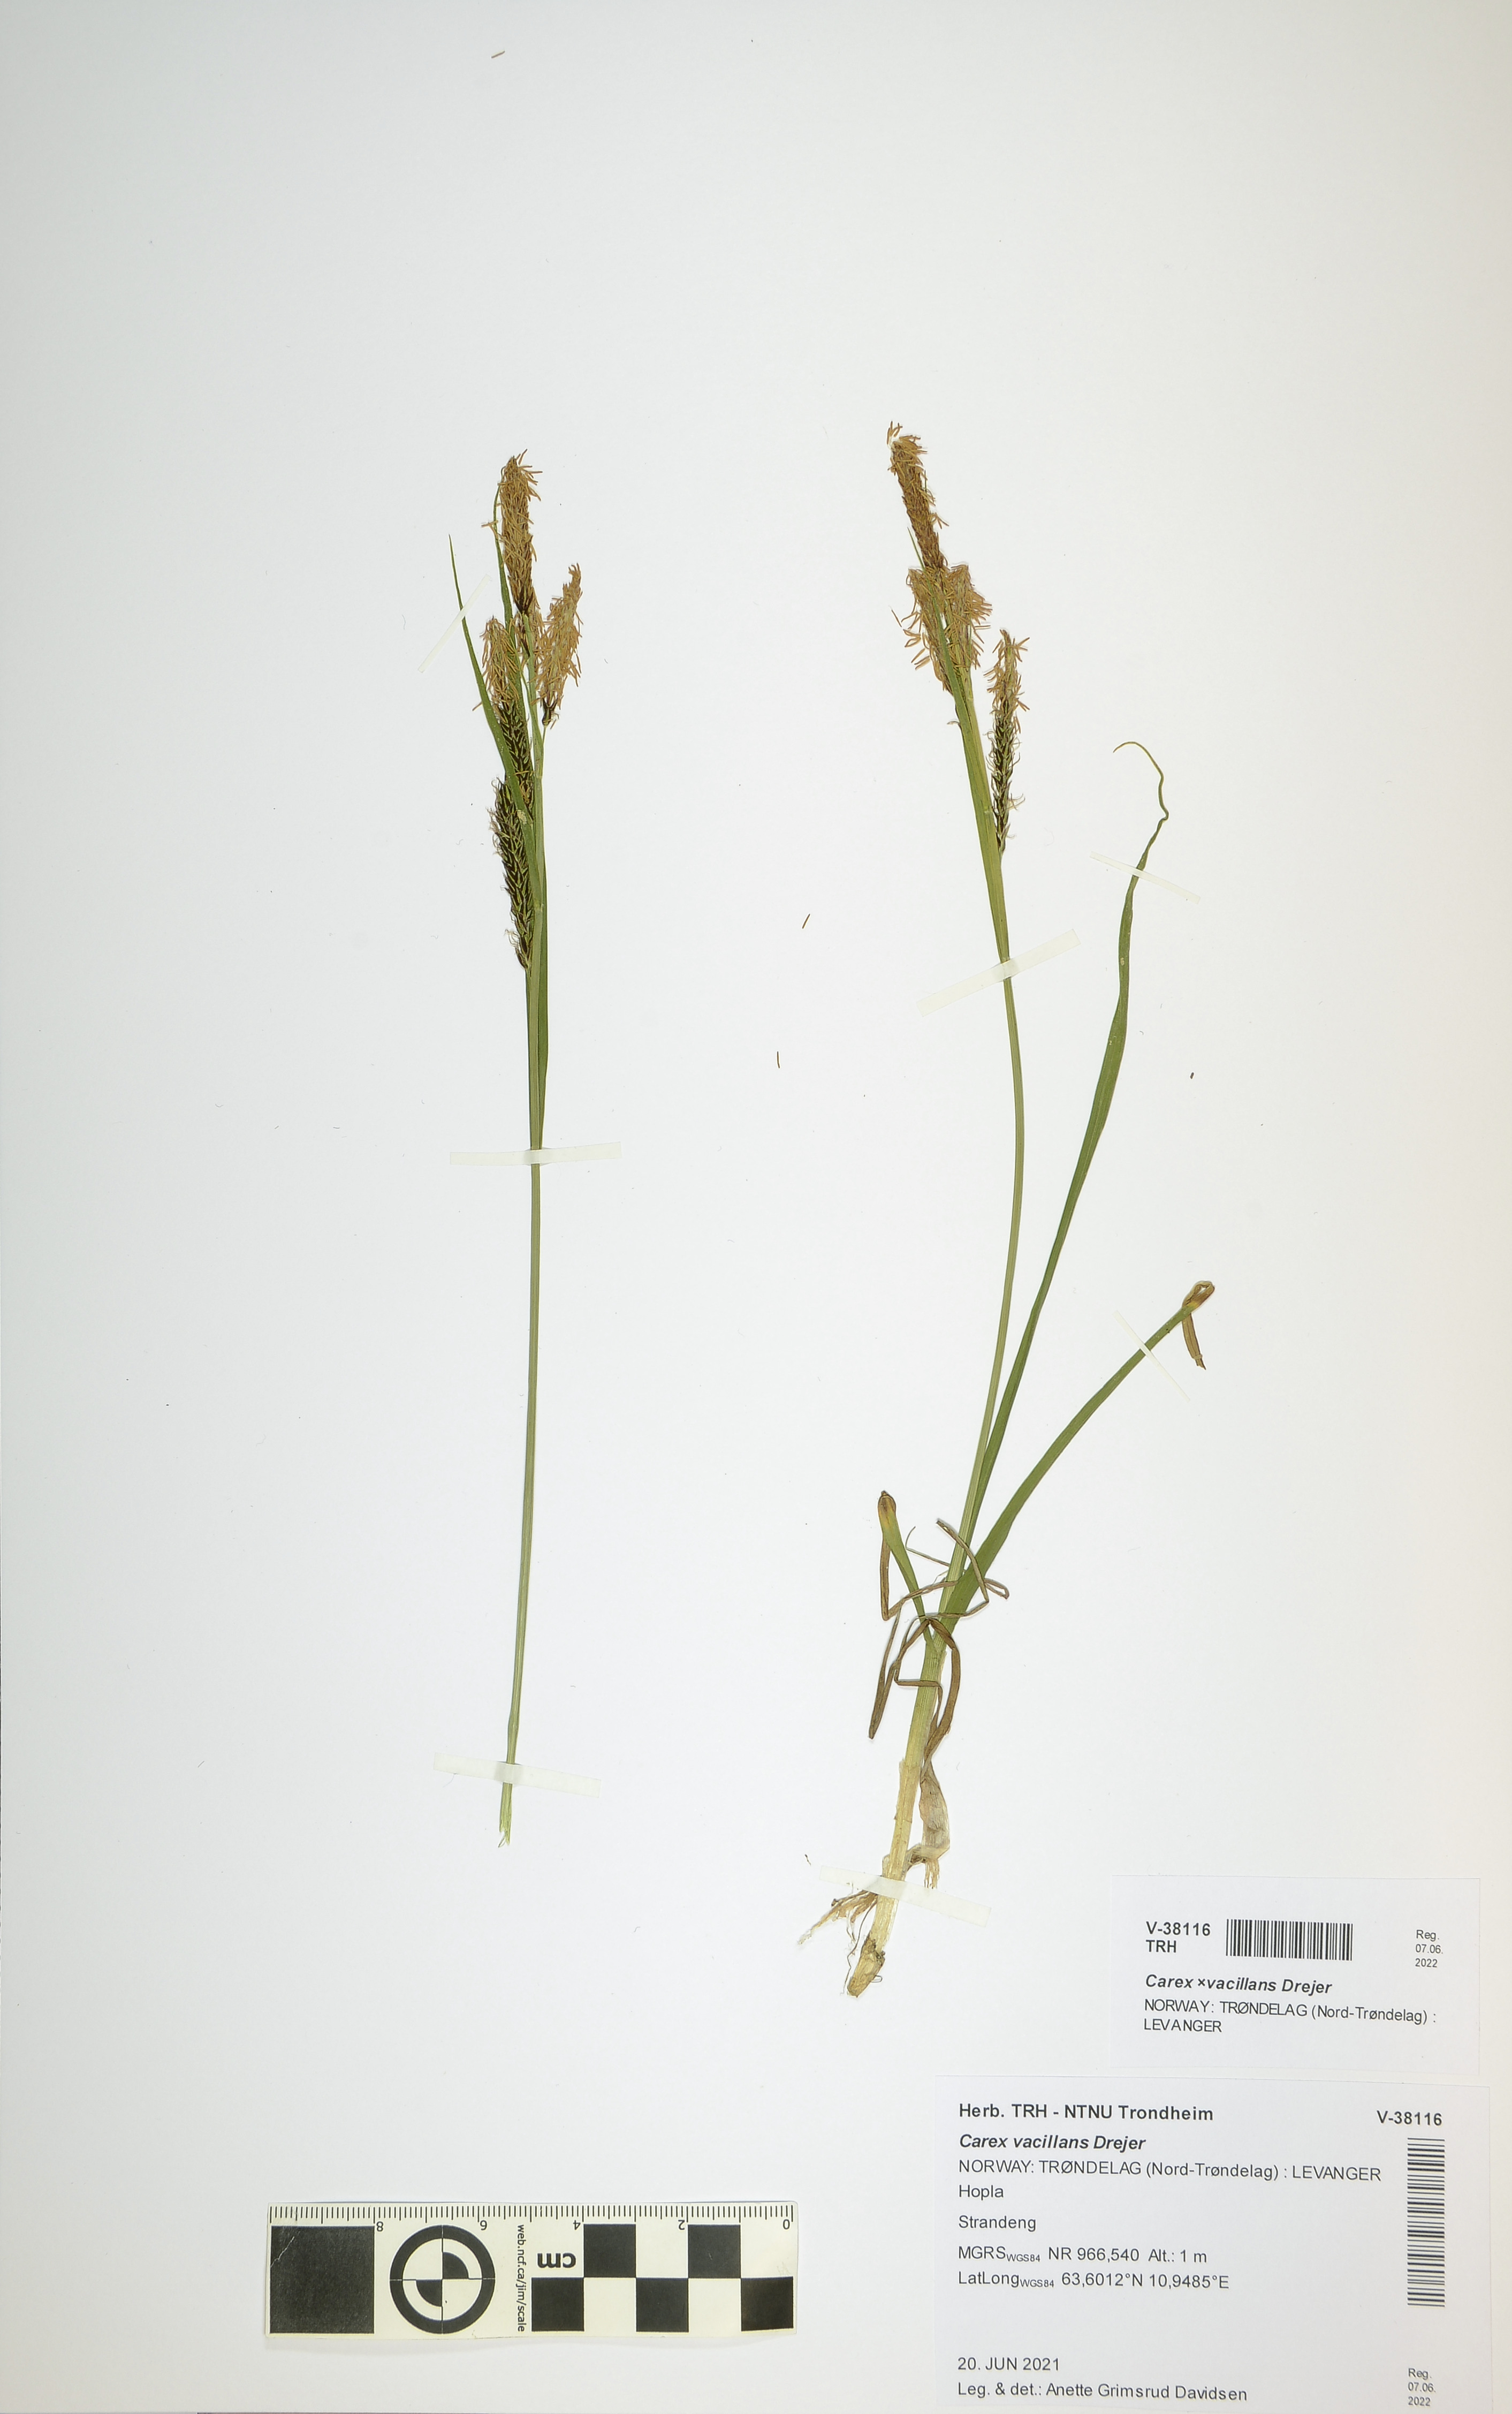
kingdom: Plantae
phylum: Tracheophyta
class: Liliopsida
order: Poales
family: Cyperaceae
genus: Carex
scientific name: Carex vacillans
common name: Sedge
